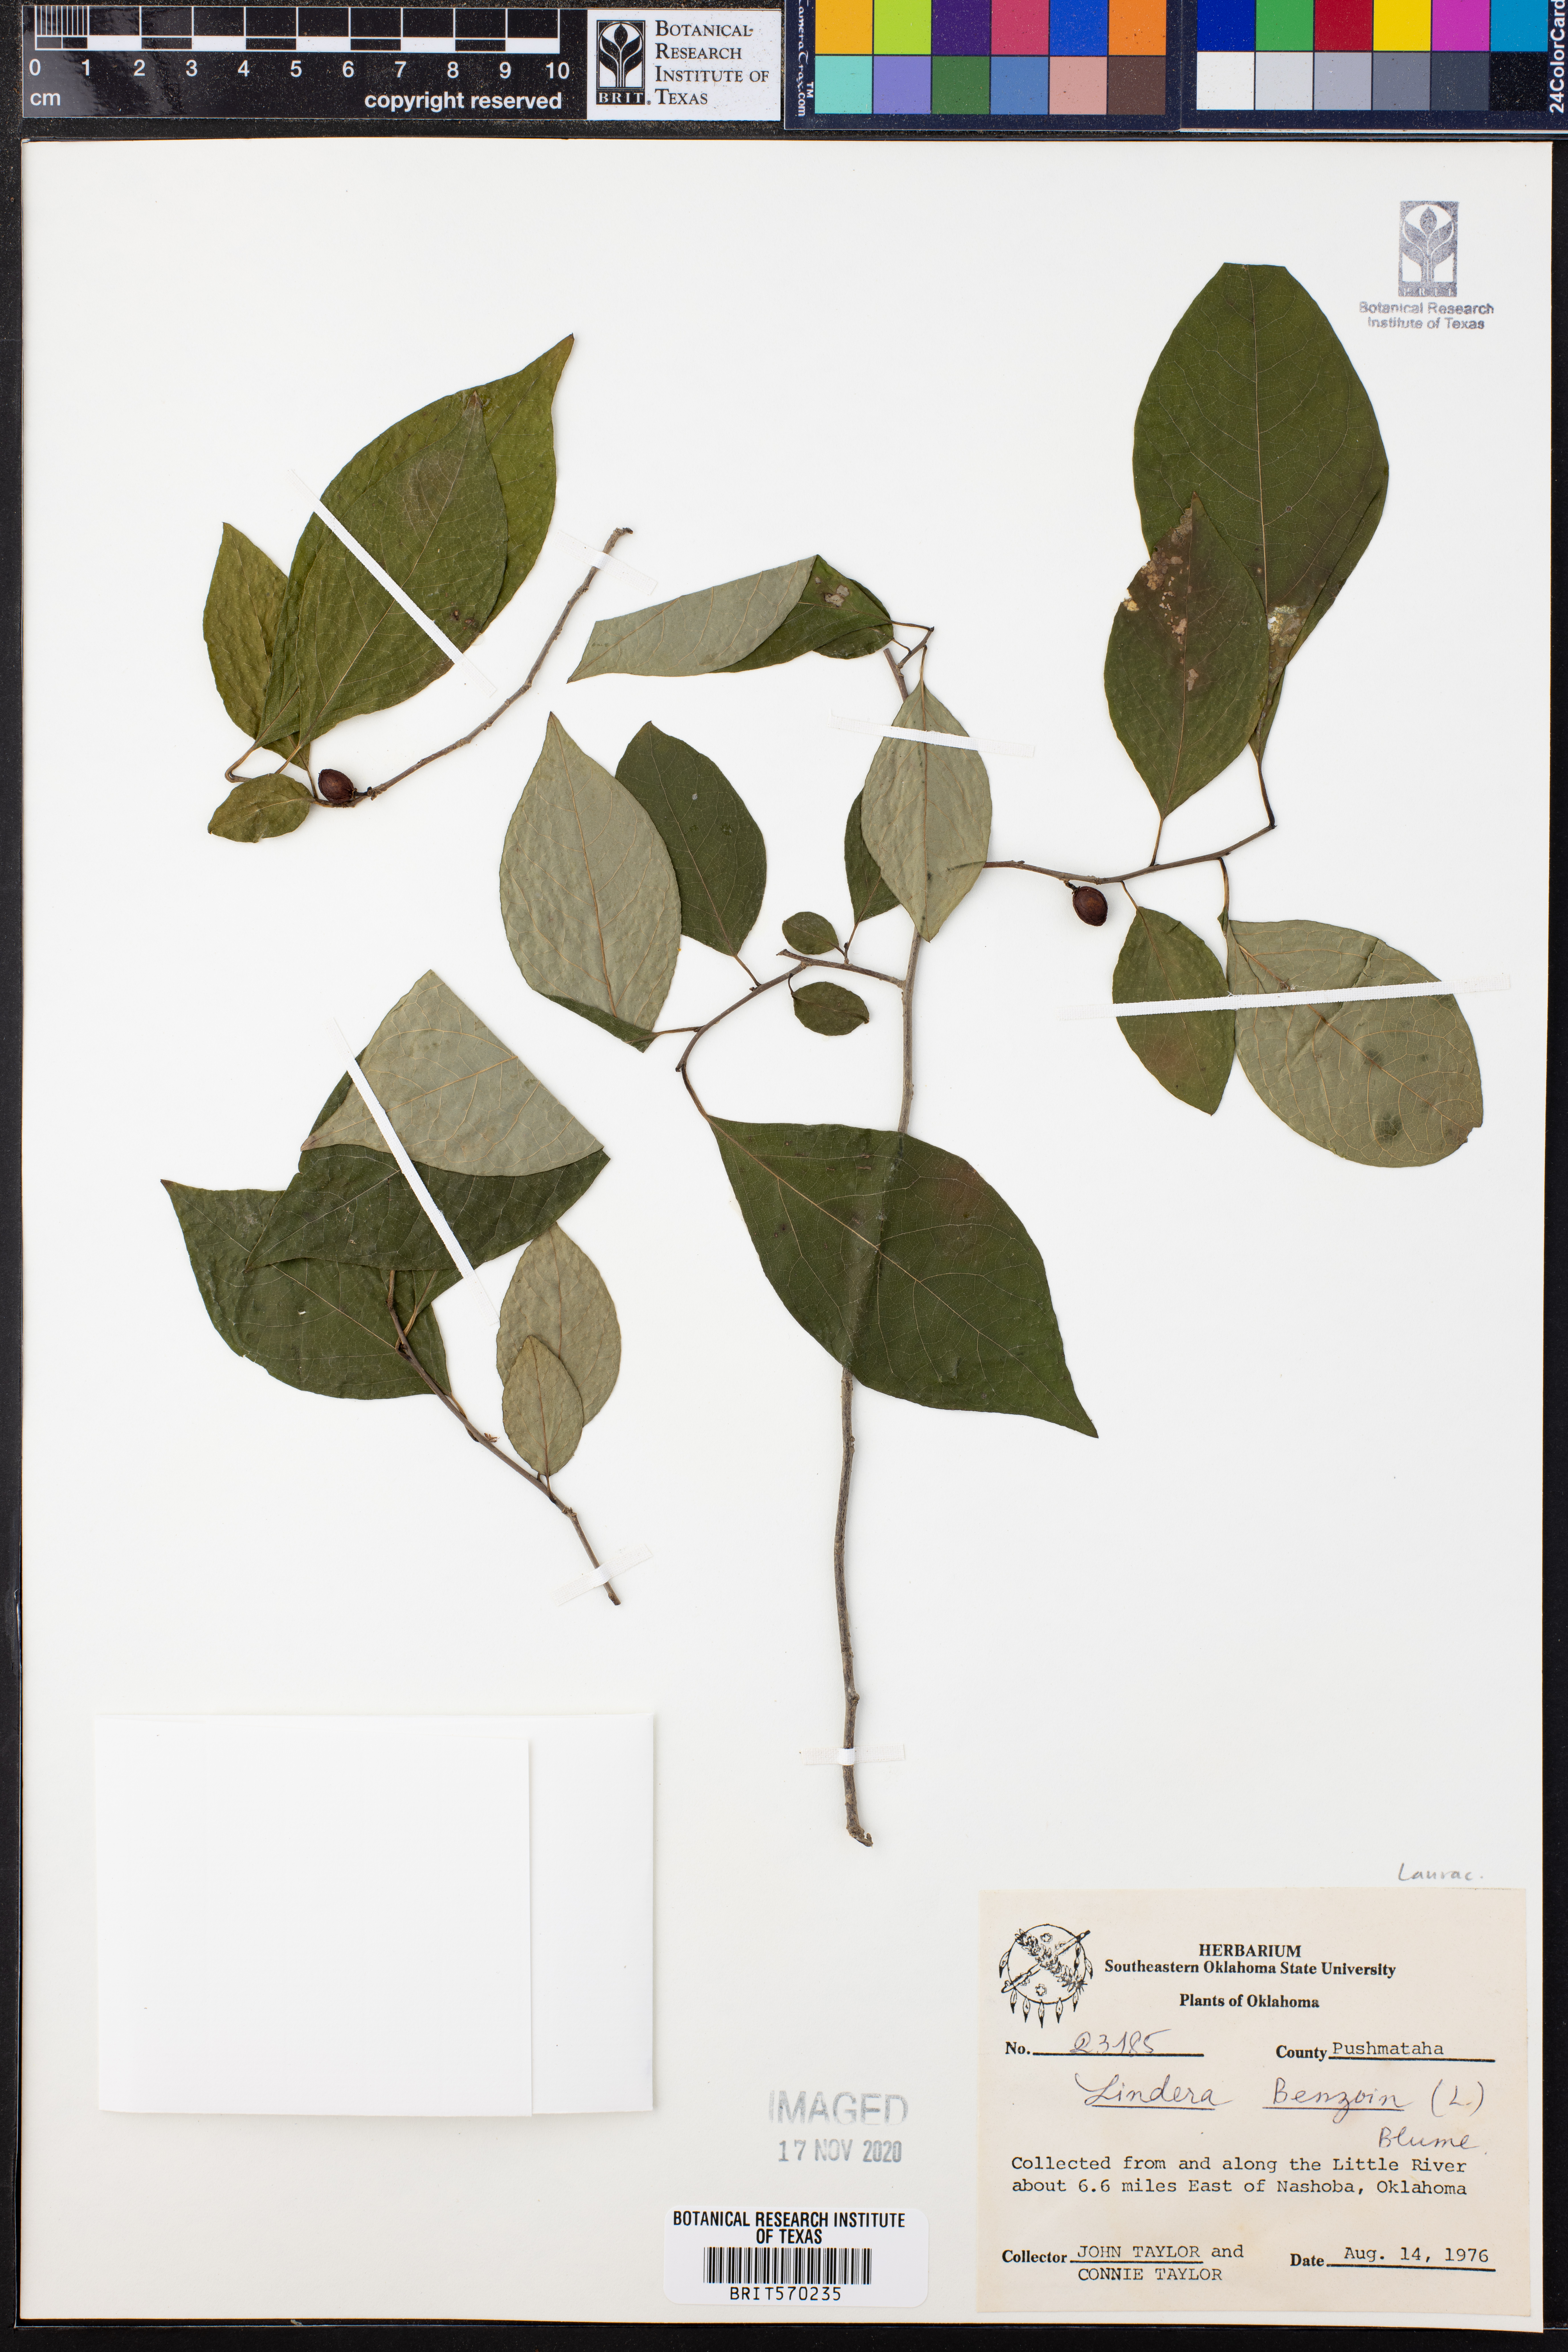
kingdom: Plantae
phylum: Tracheophyta
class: Magnoliopsida
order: Laurales
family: Lauraceae
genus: Lindera
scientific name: Lindera benzoin
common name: Spicebush
